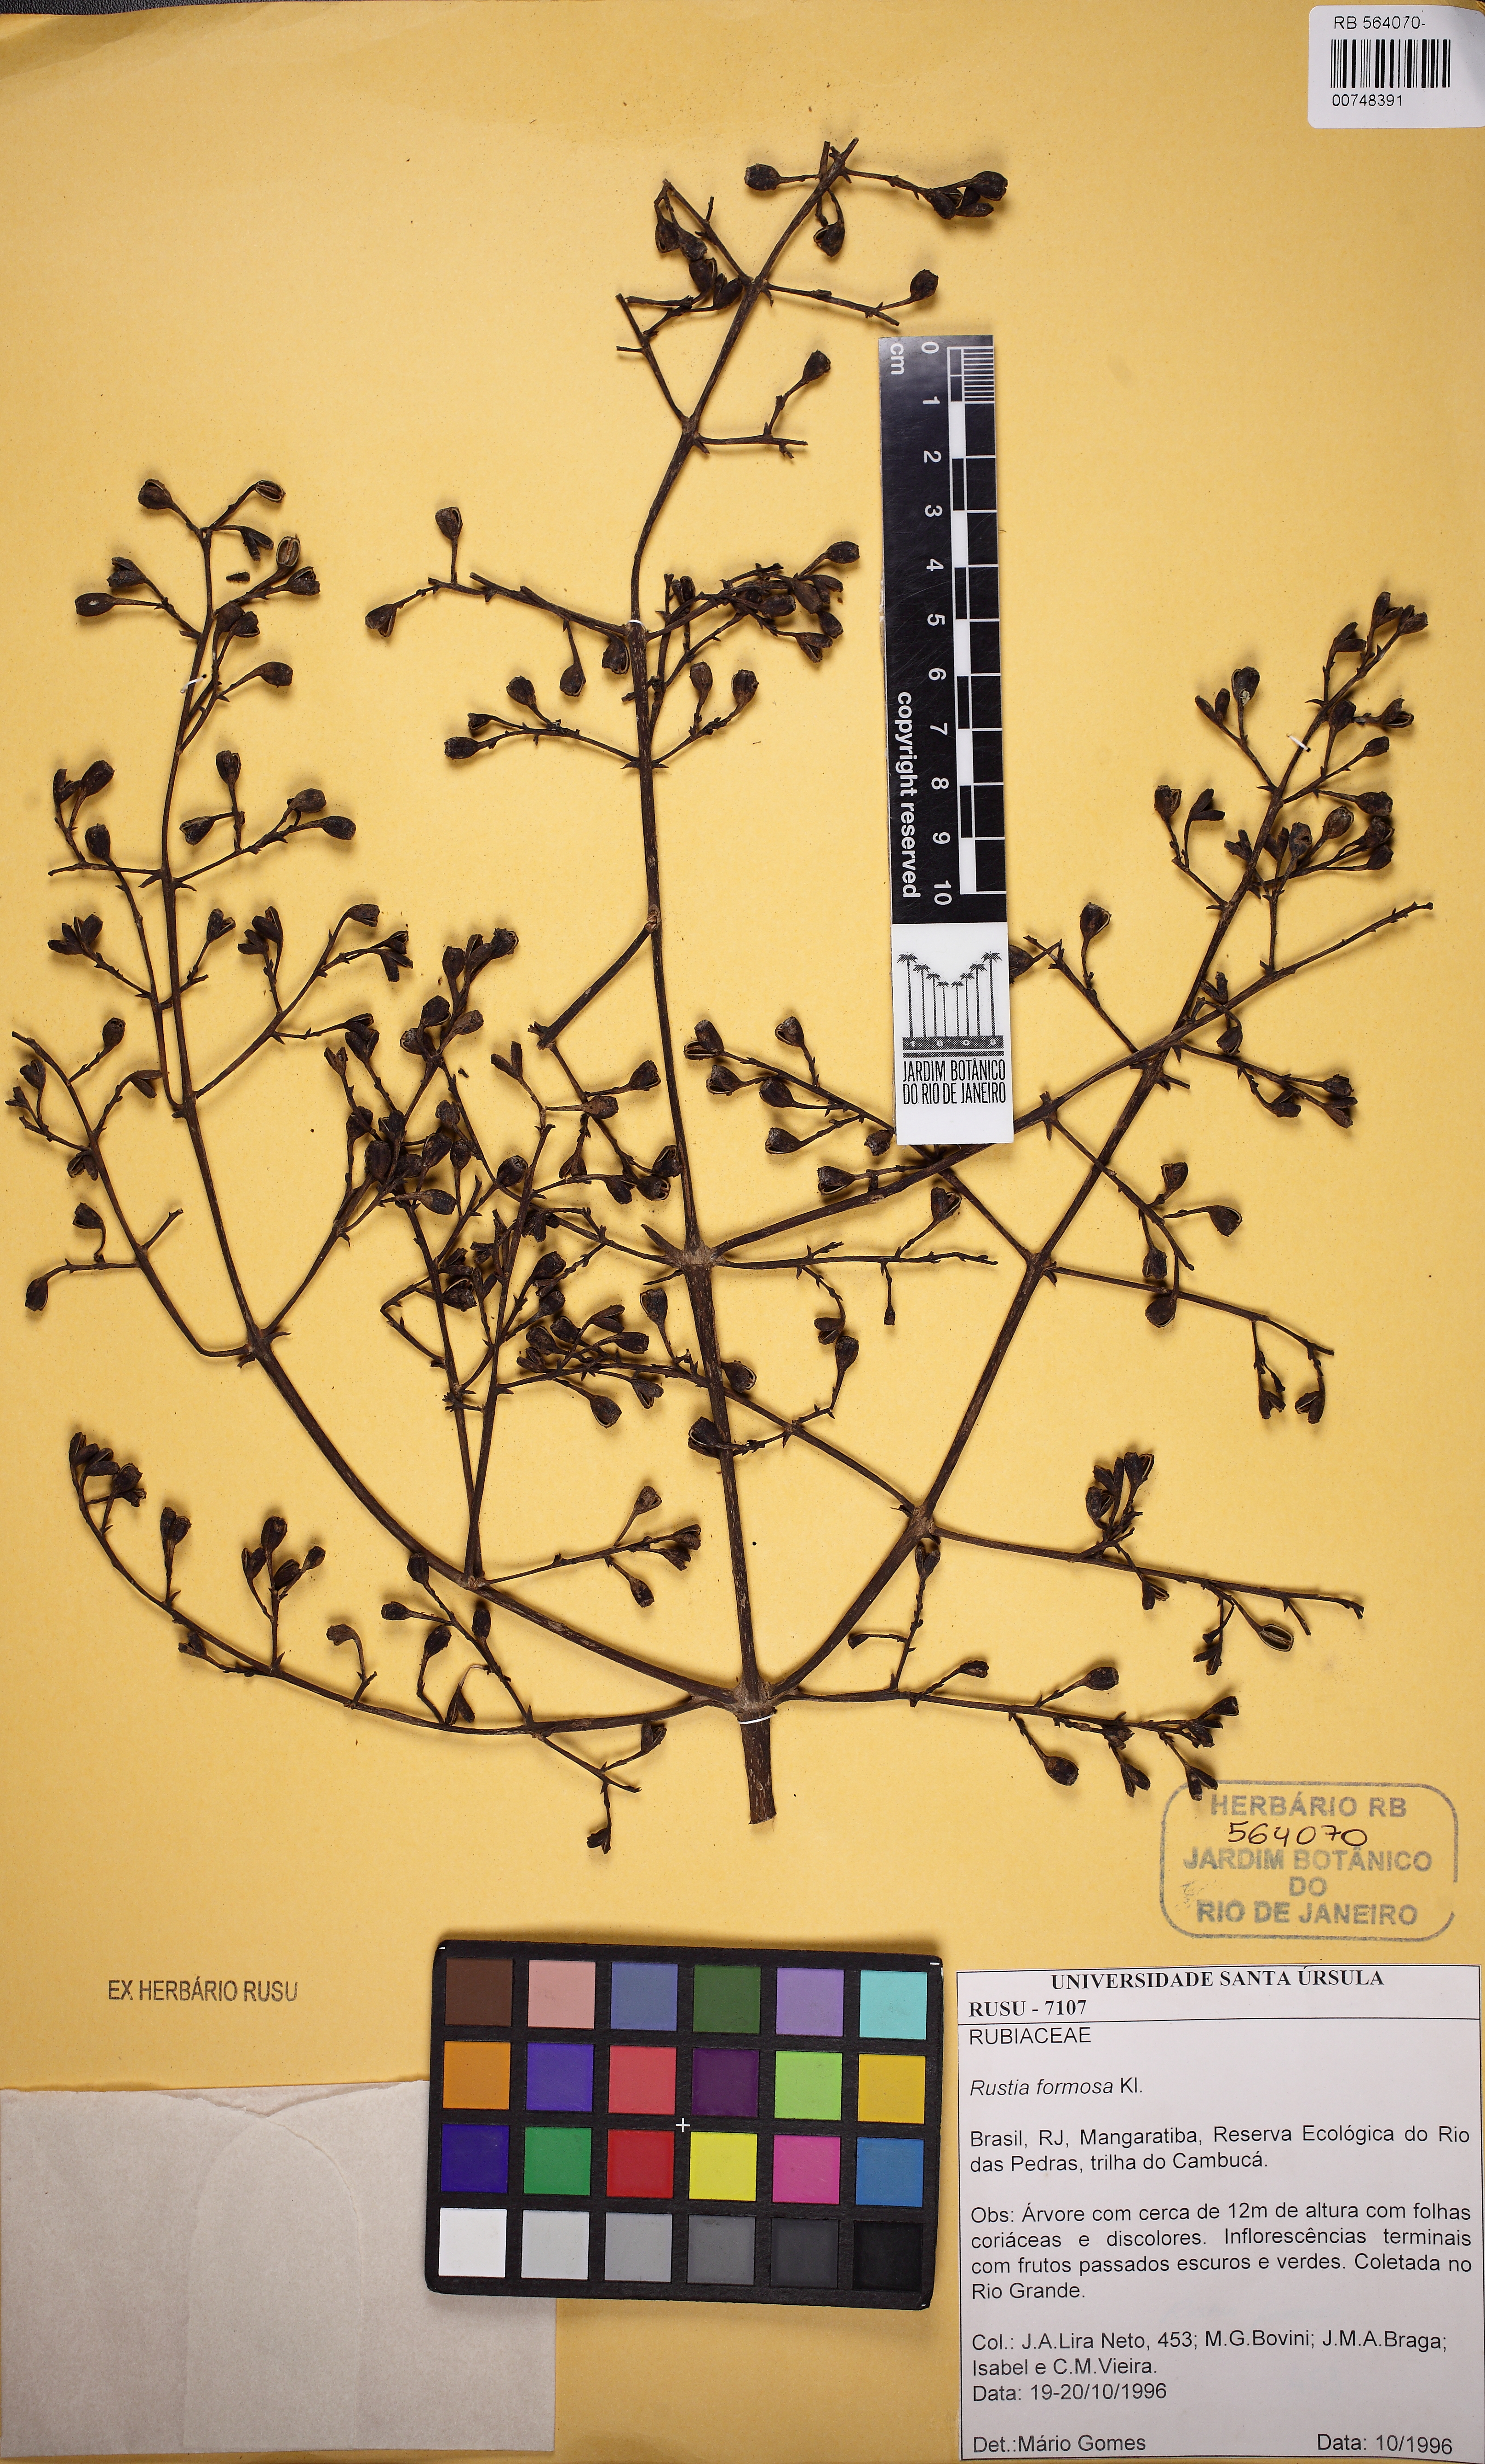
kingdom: Plantae
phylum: Tracheophyta
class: Magnoliopsida
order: Gentianales
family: Rubiaceae
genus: Rustia
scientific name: Rustia formosa
